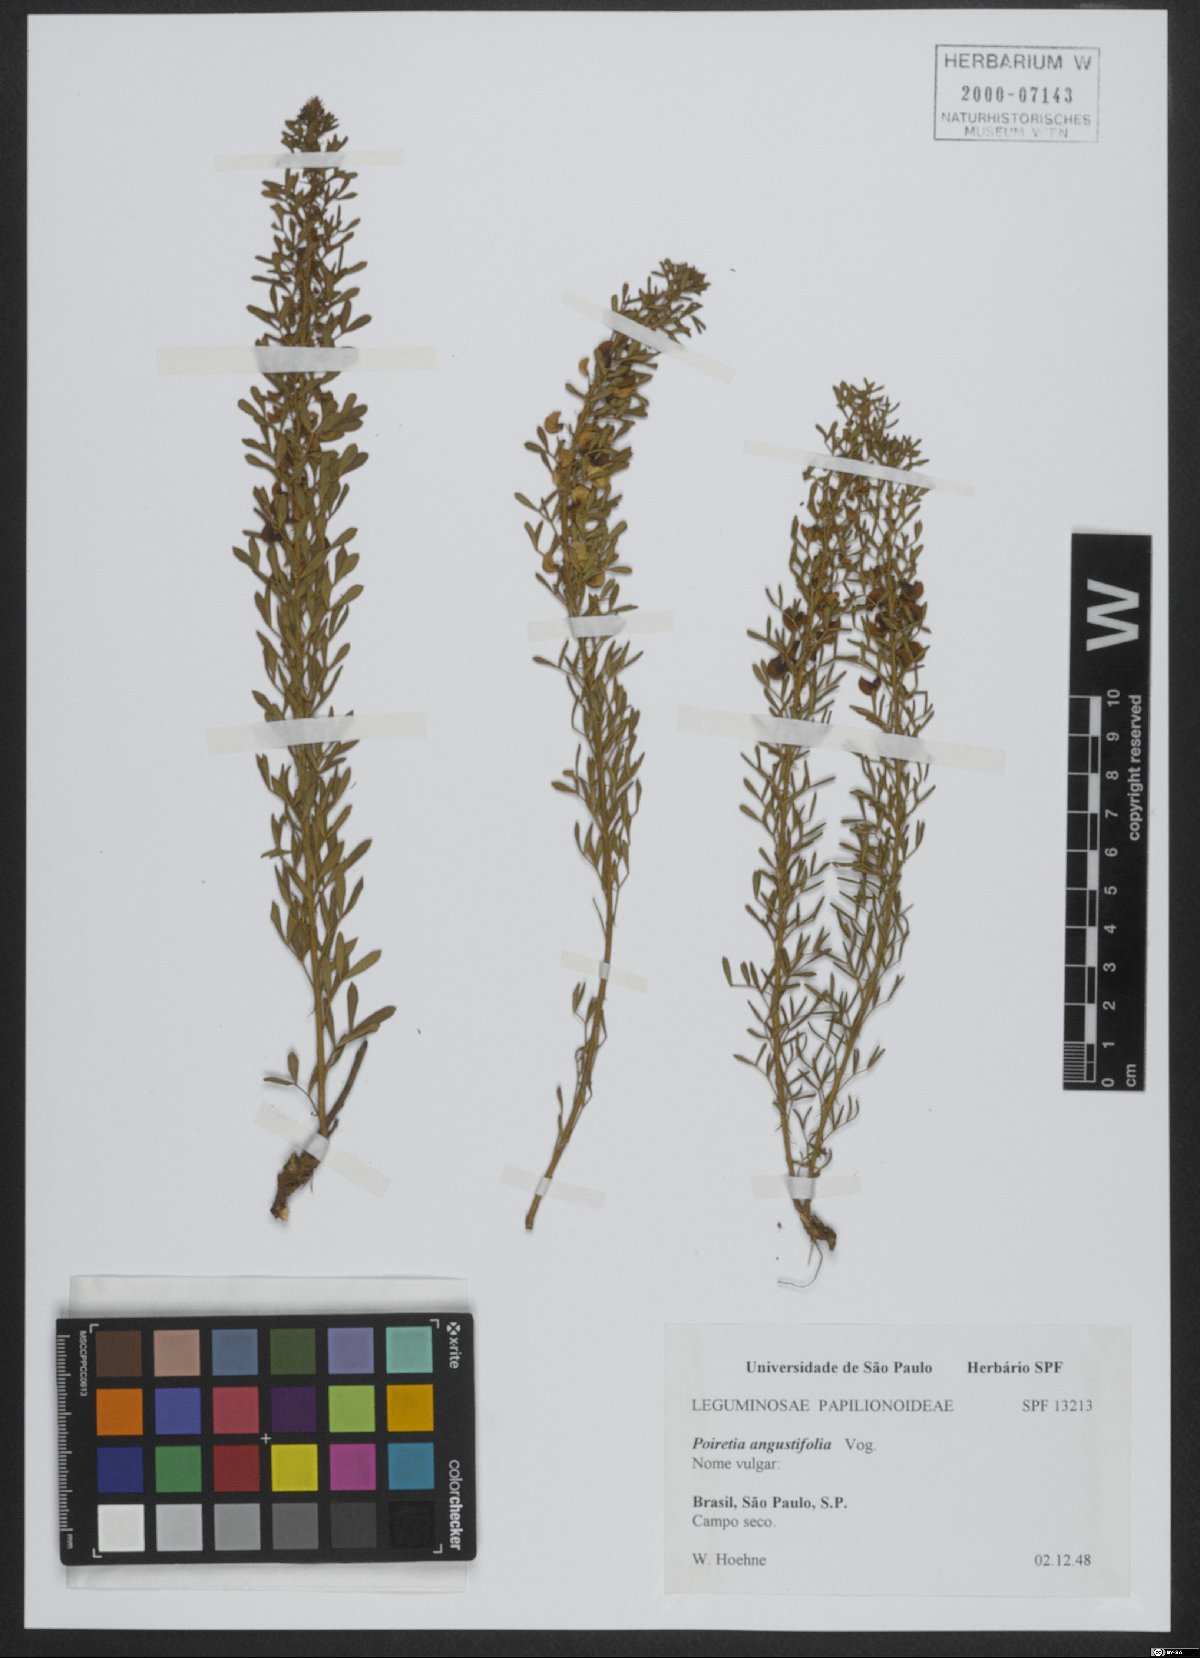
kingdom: Plantae
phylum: Tracheophyta
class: Magnoliopsida
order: Fabales
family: Fabaceae
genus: Poiretia
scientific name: Poiretia angustifolia
